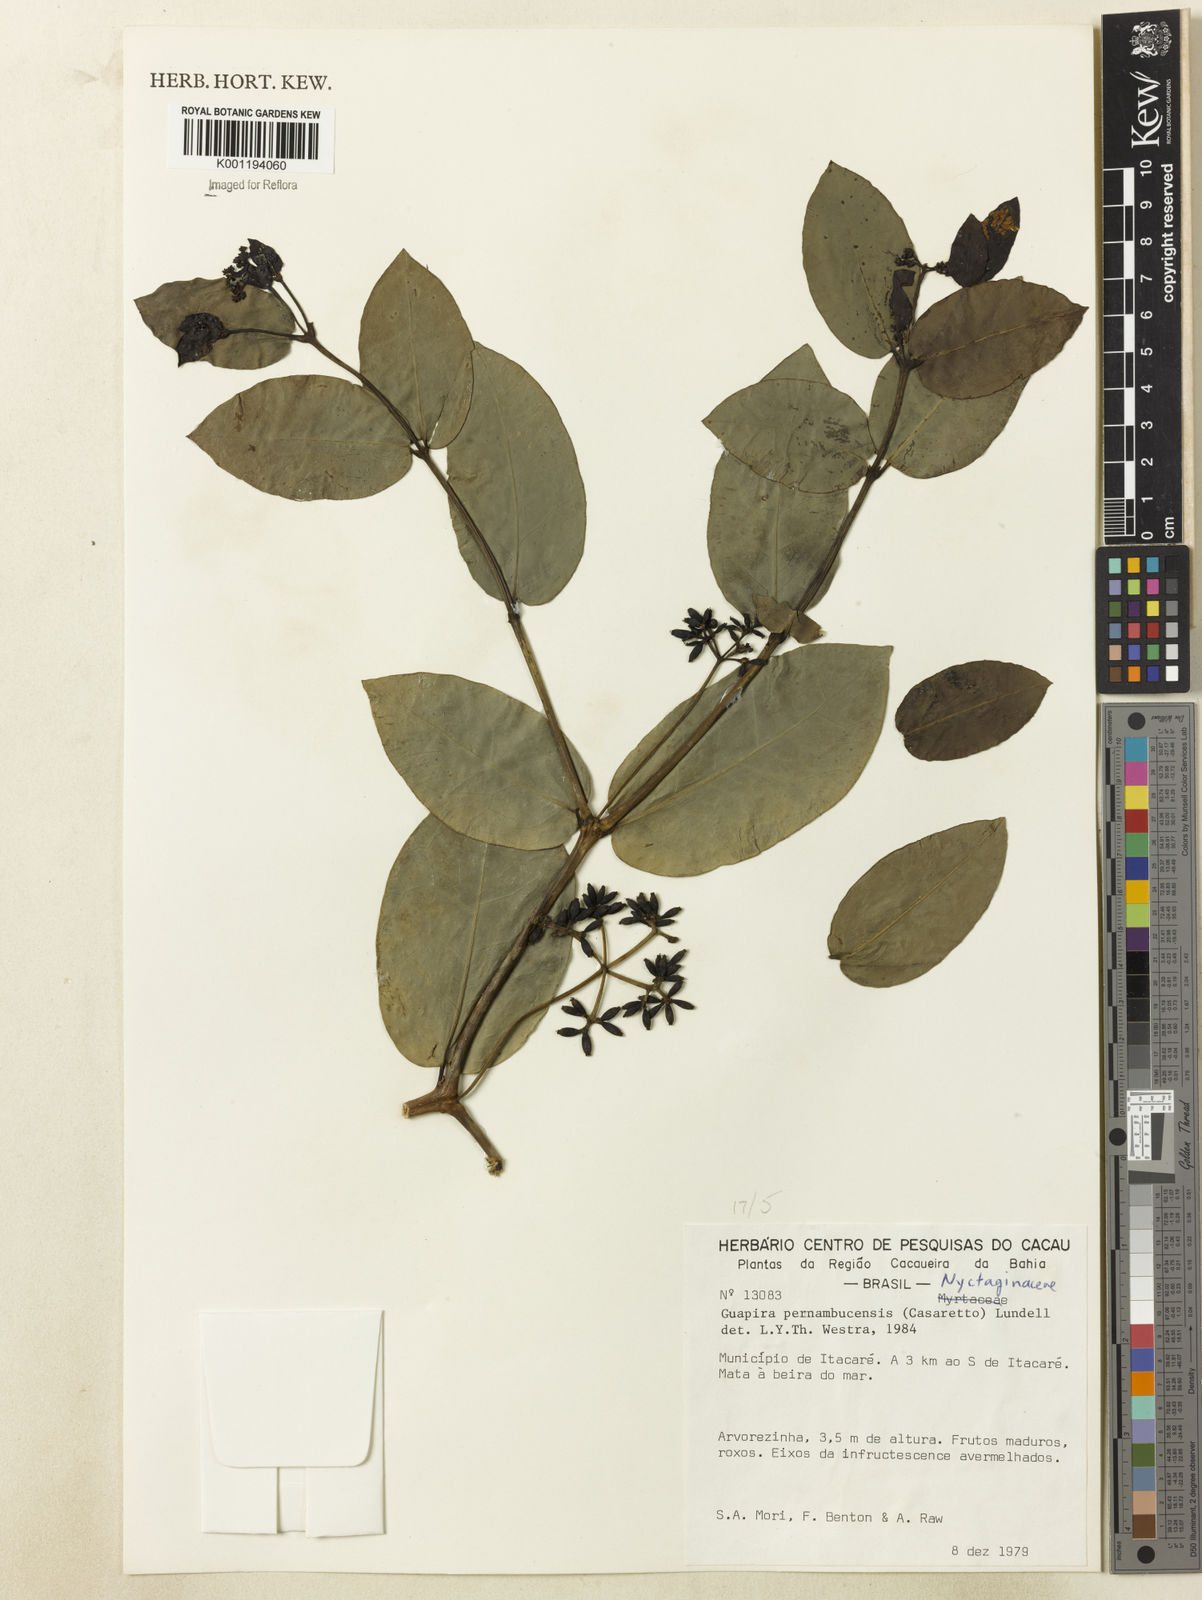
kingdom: Plantae
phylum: Tracheophyta
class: Magnoliopsida
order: Caryophyllales
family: Nyctaginaceae
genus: Guapira
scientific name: Guapira pernambucensis
